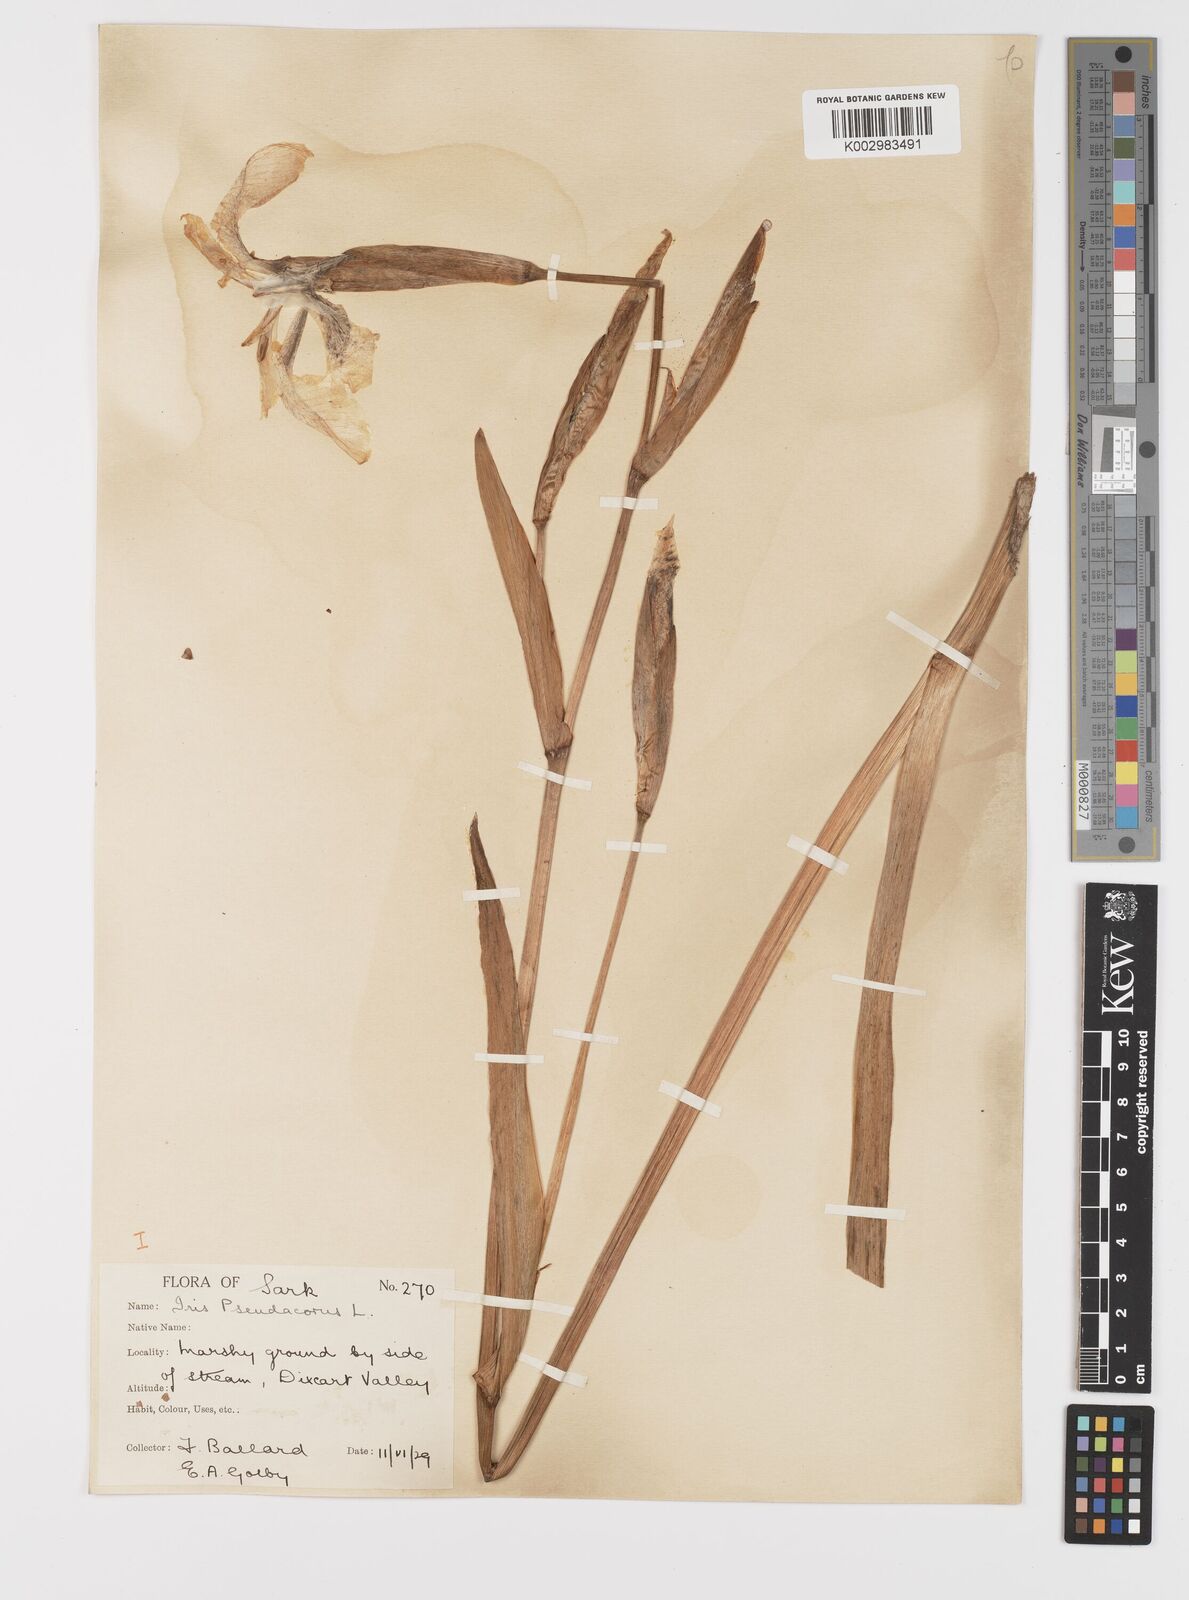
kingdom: Plantae
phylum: Tracheophyta
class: Liliopsida
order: Asparagales
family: Iridaceae
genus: Iris
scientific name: Iris pseudacorus
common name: Yellow flag
